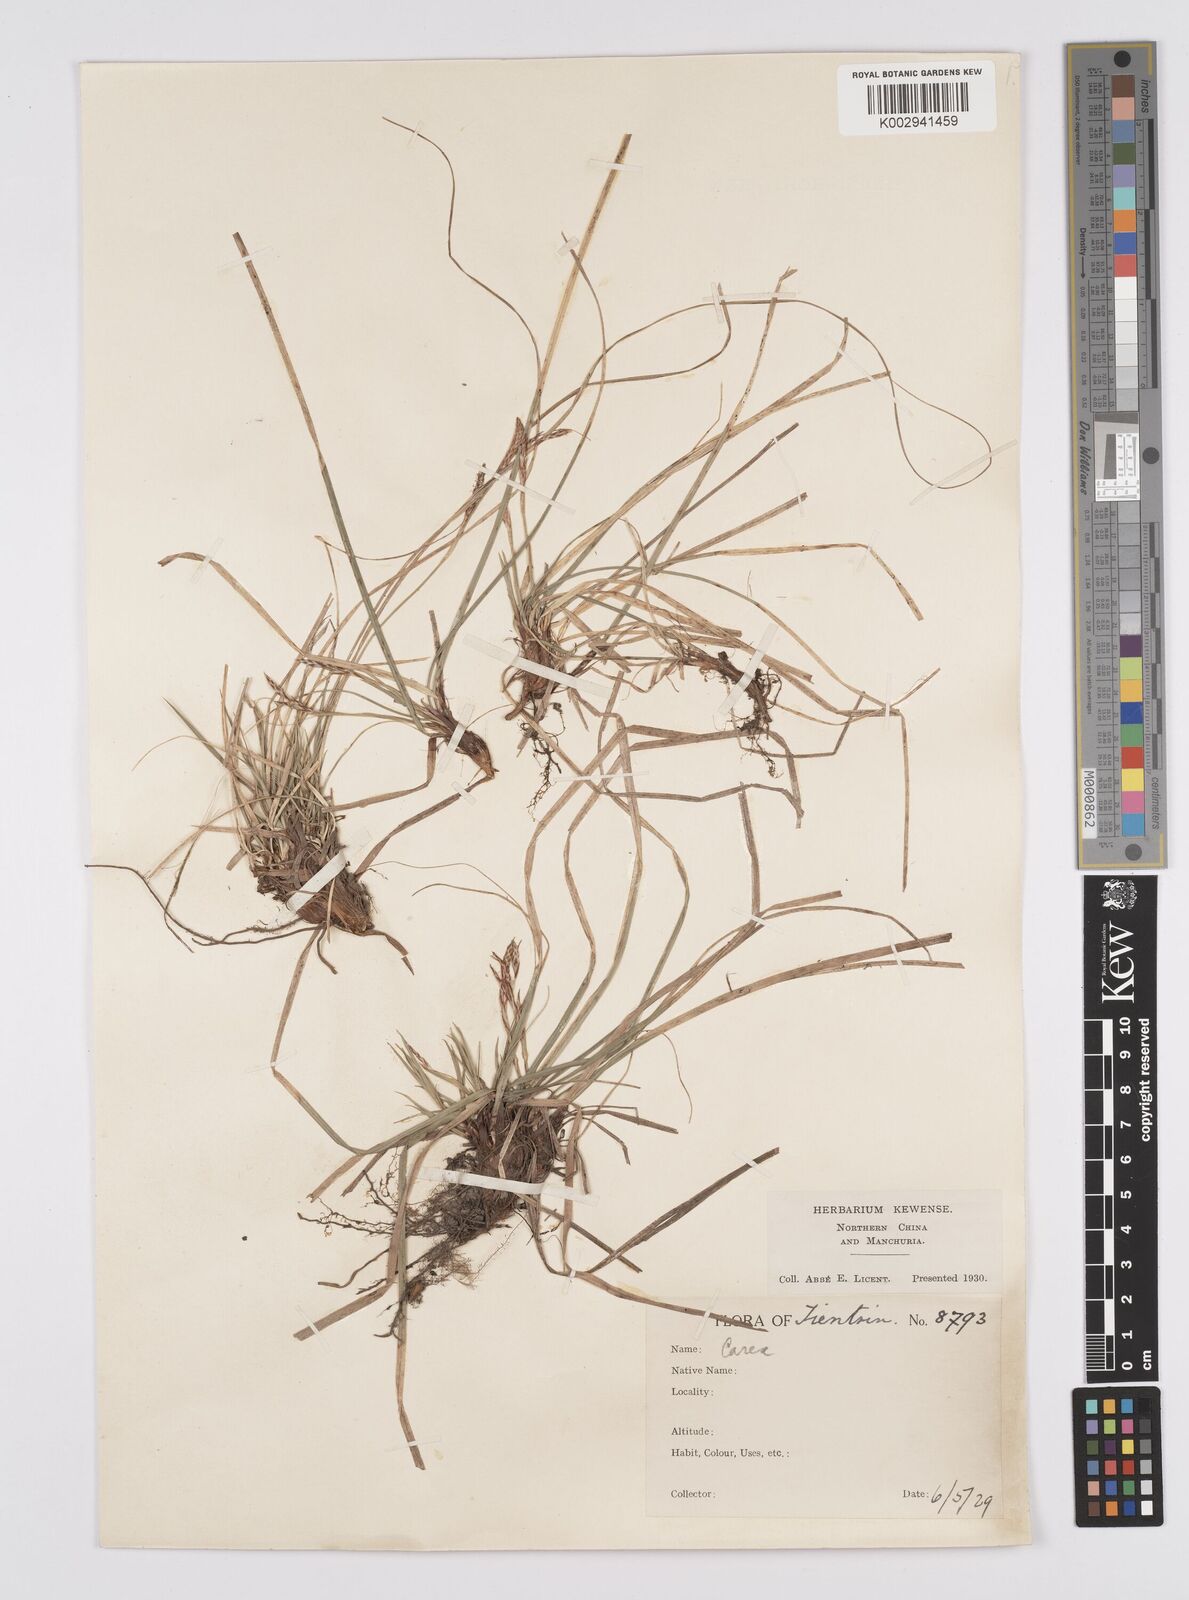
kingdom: Plantae
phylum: Tracheophyta
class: Liliopsida
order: Poales
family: Cyperaceae
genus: Carex
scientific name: Carex lanceolata
